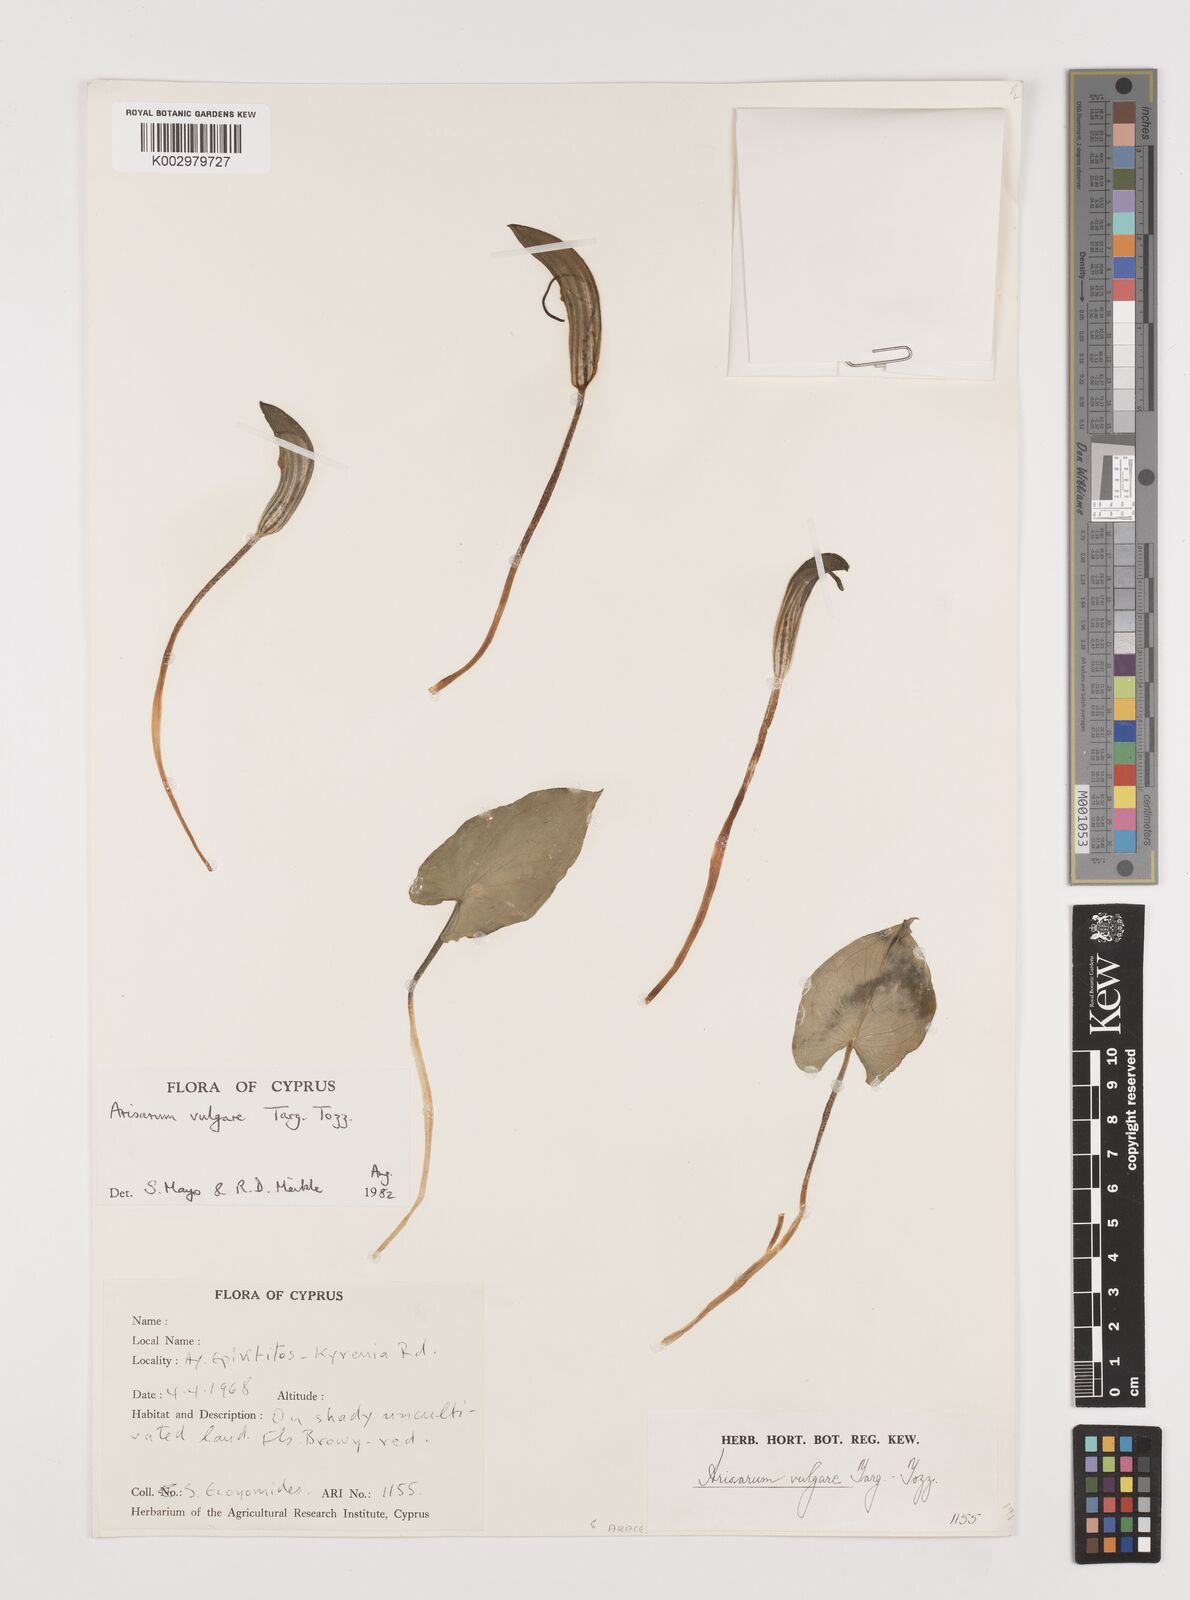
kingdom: Plantae
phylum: Tracheophyta
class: Liliopsida
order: Alismatales
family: Araceae
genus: Arisarum
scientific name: Arisarum vulgare
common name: Common arisarum
